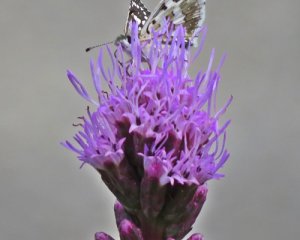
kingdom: Animalia
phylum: Arthropoda
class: Insecta
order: Lepidoptera
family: Hesperiidae
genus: Pyrgus
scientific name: Pyrgus communis
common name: Common Checkered-Skipper
